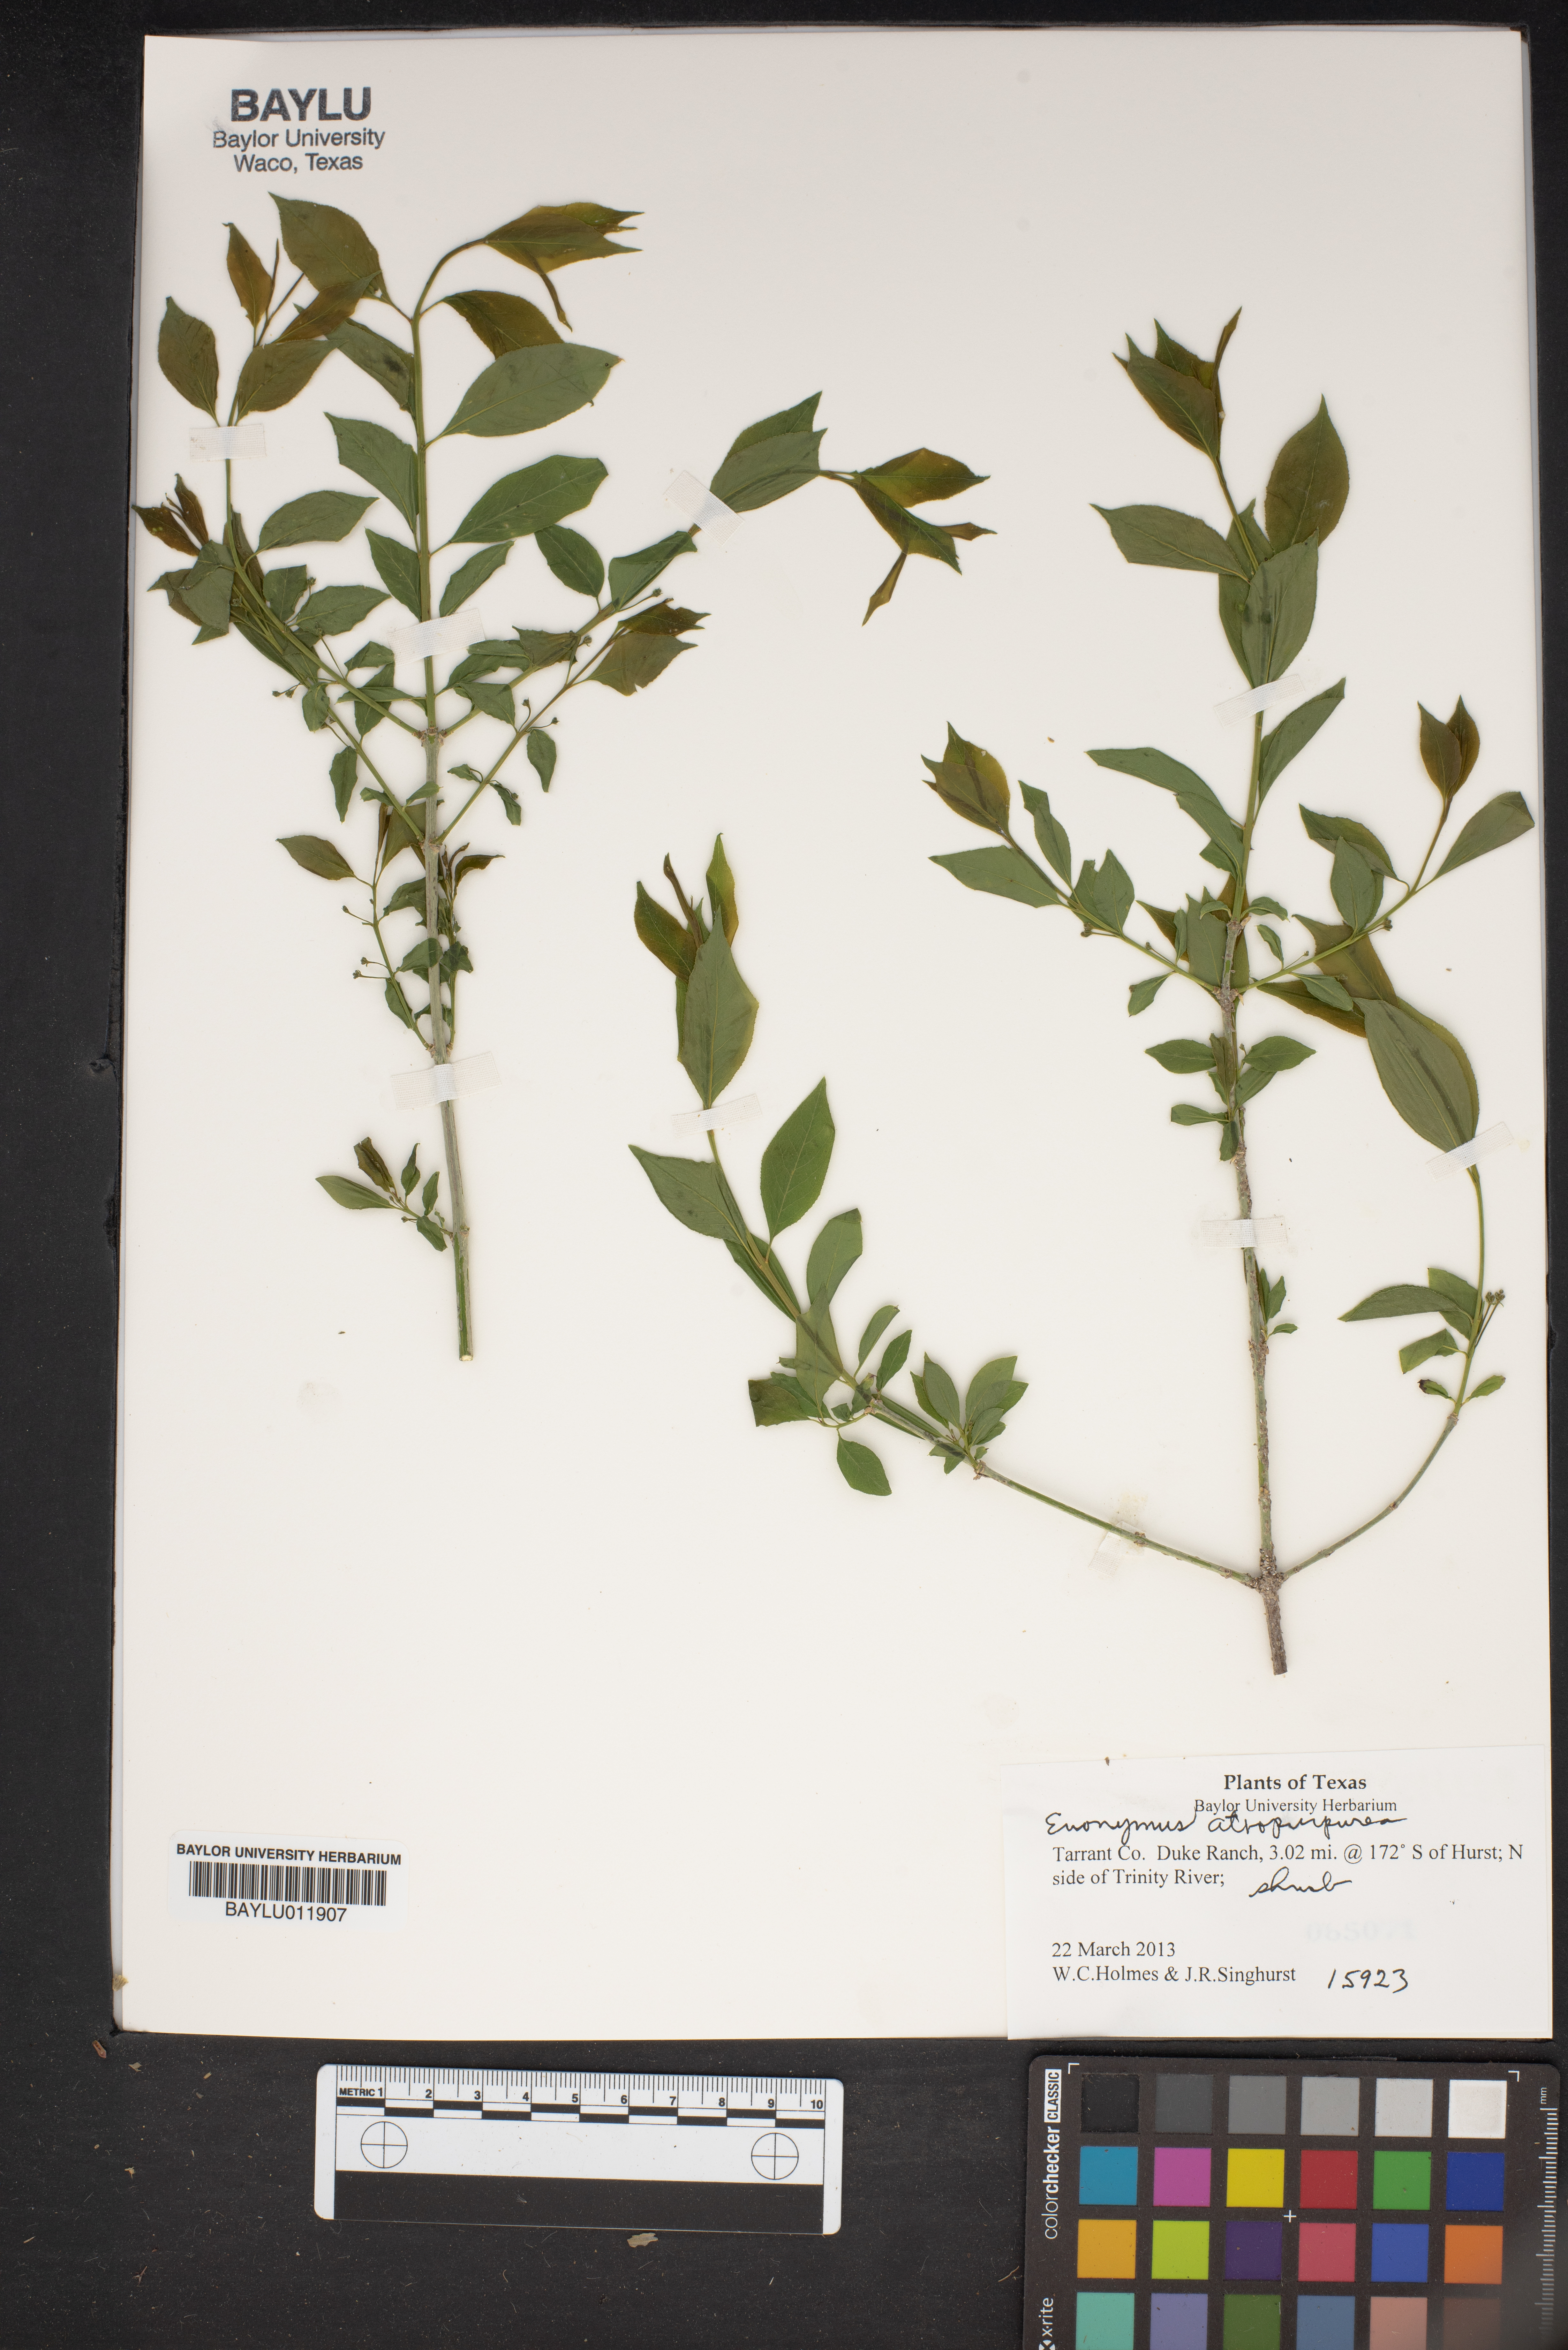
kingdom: Plantae
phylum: Tracheophyta
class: Magnoliopsida
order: Celastrales
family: Celastraceae
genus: Euonymus
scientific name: Euonymus atropurpureus
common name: Eastern wahoo
